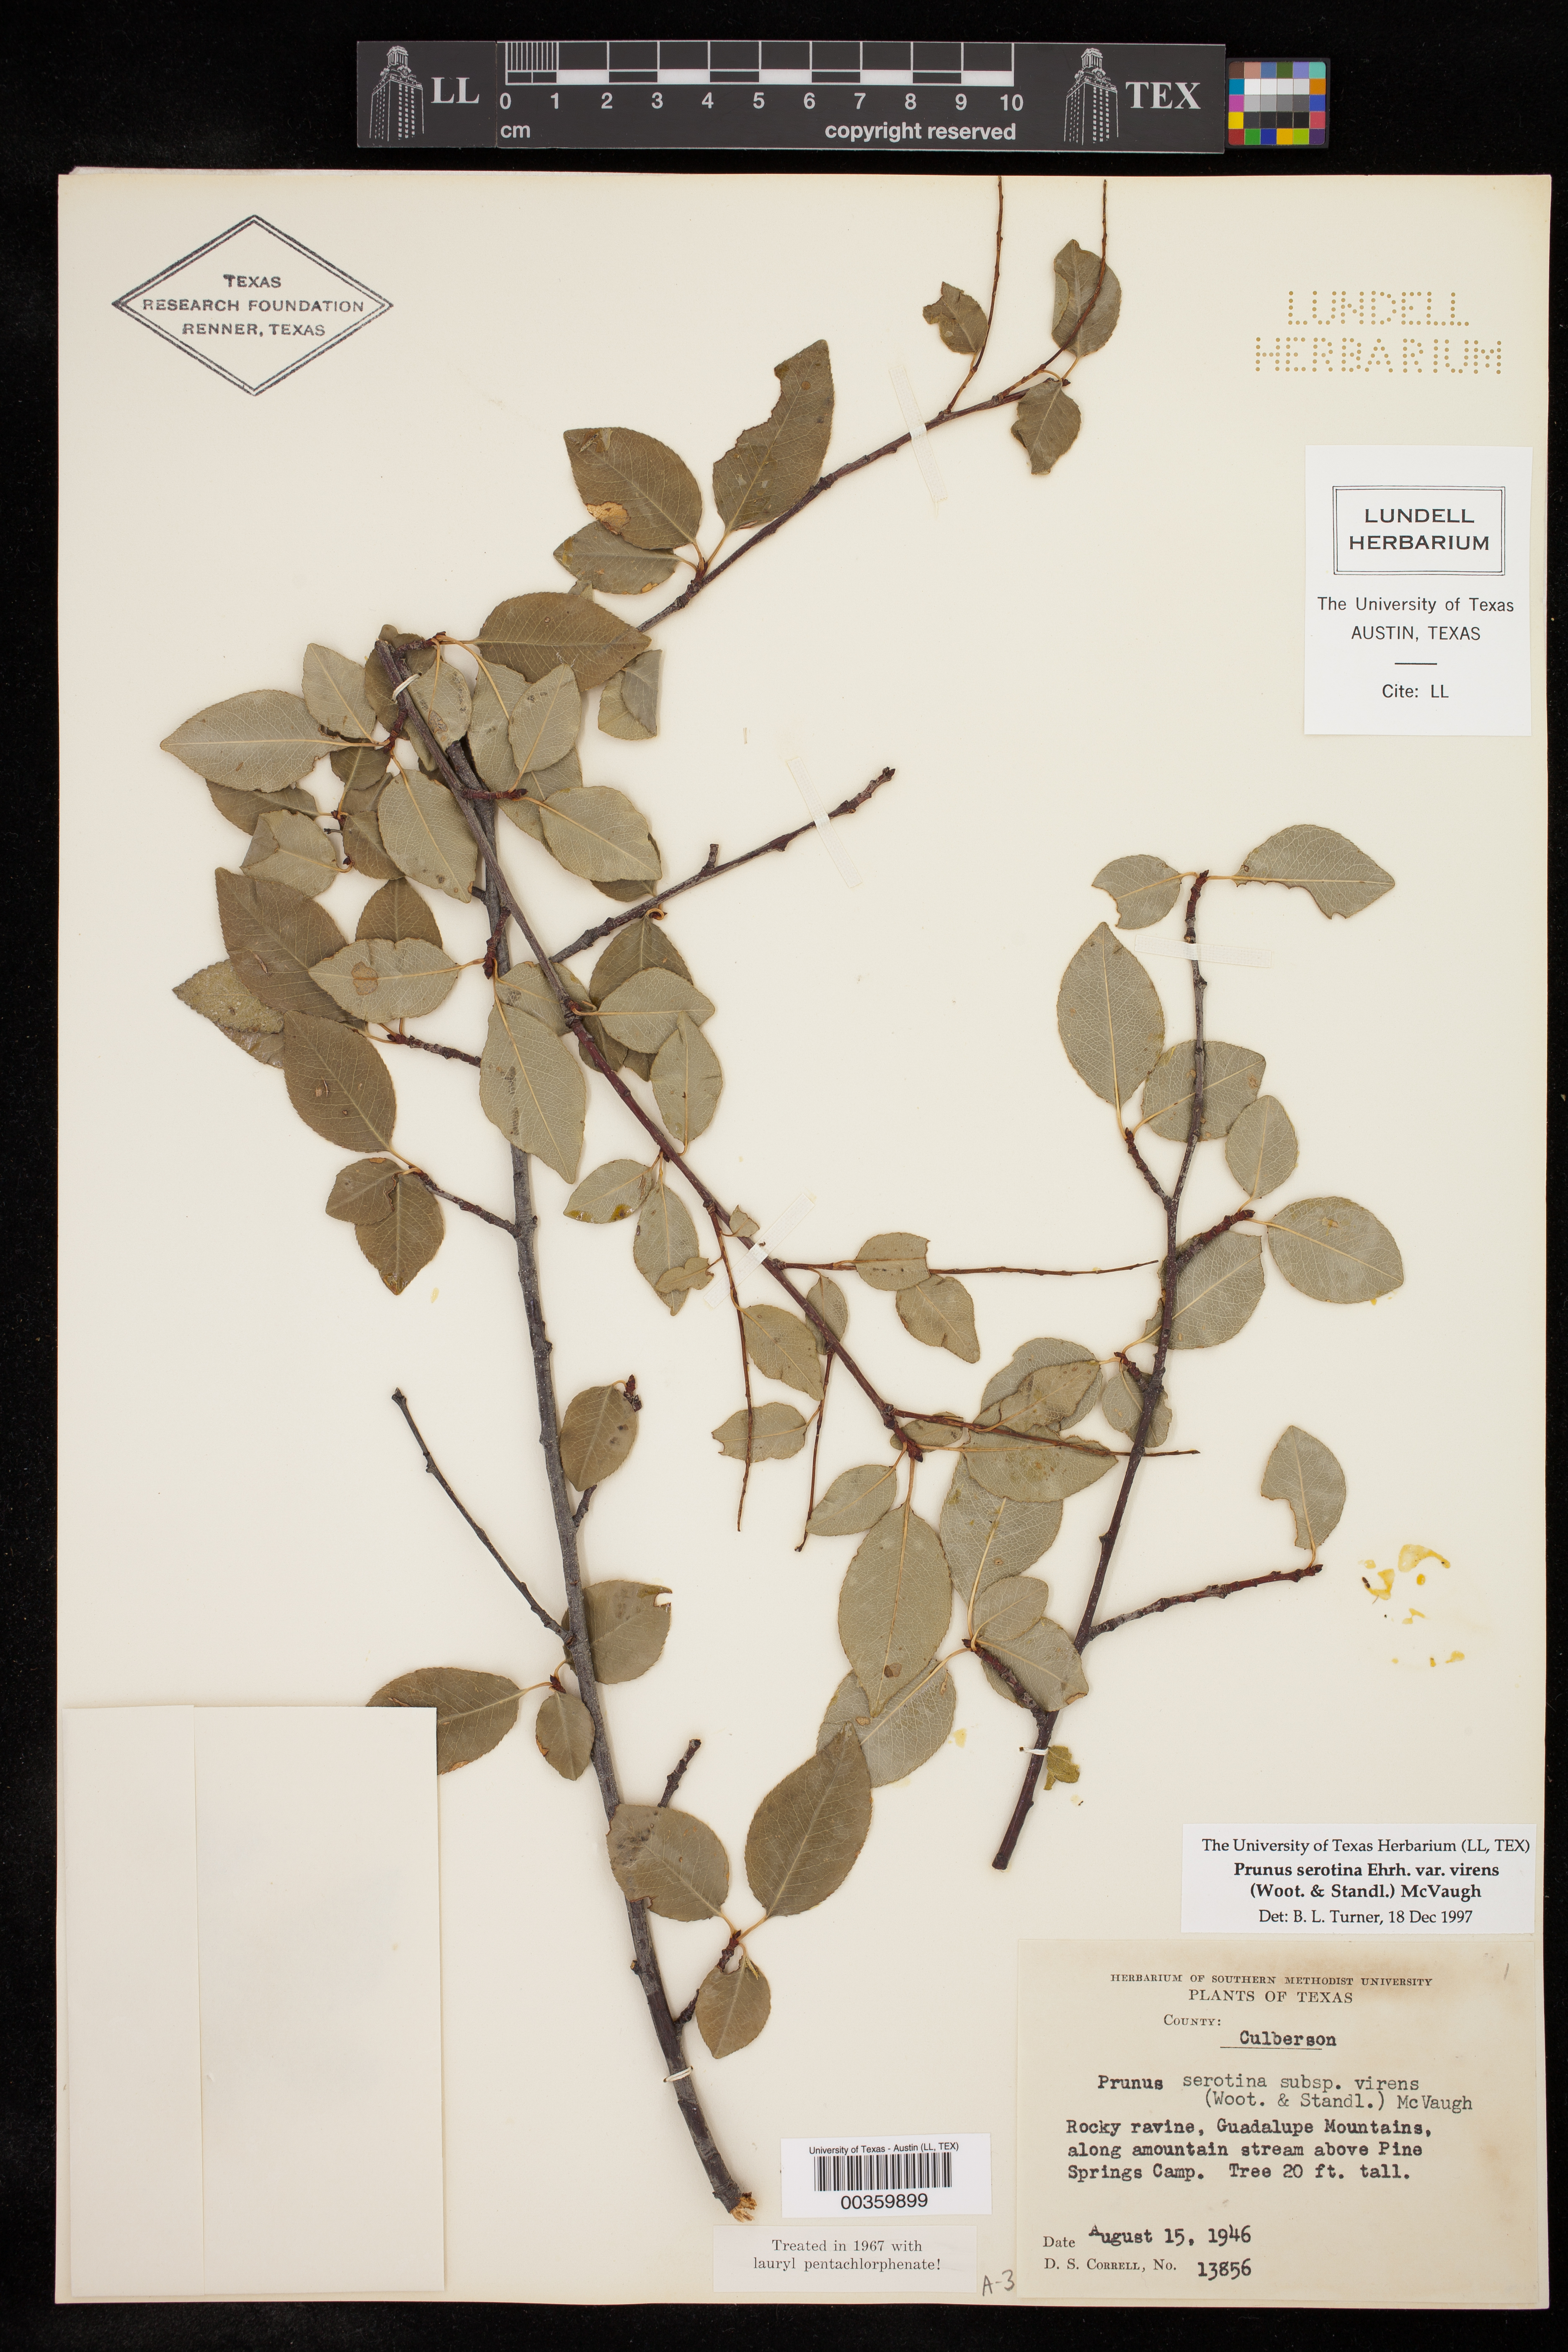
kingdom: Plantae
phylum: Tracheophyta
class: Magnoliopsida
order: Rosales
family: Rosaceae
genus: Prunus
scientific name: Prunus serotina
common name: Black cherry
